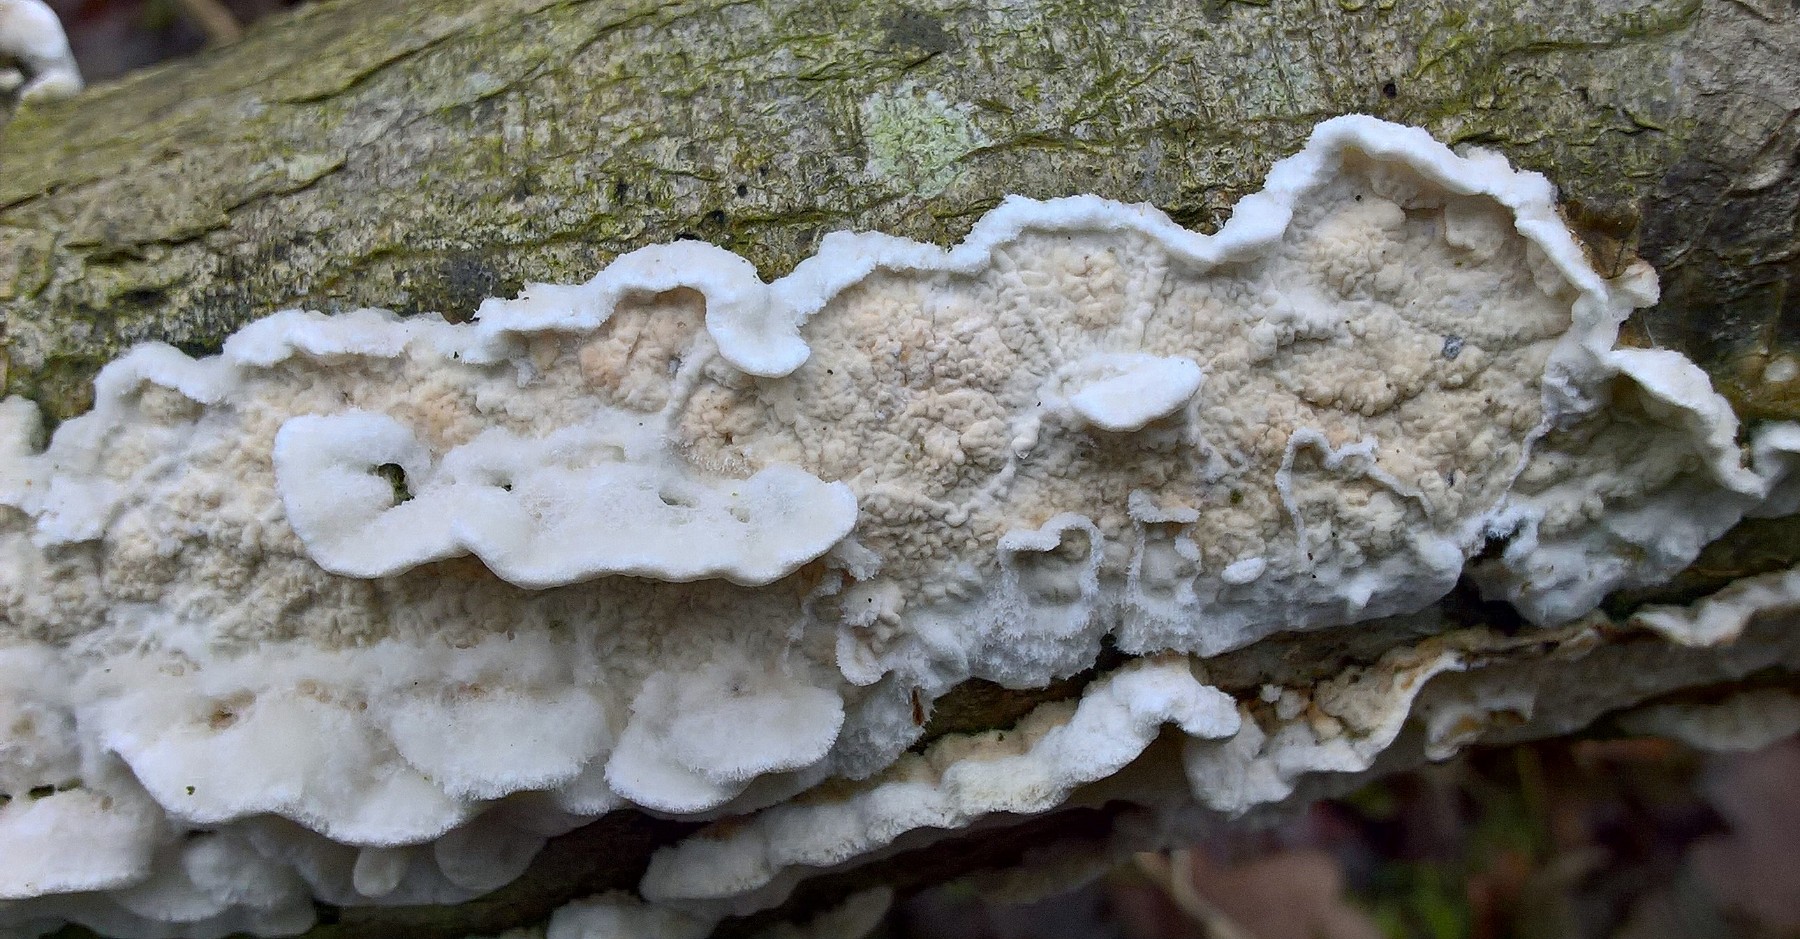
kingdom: Fungi
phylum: Basidiomycota
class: Agaricomycetes
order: Polyporales
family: Irpicaceae
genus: Byssomerulius
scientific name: Byssomerulius corium
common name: læder-åresvamp
